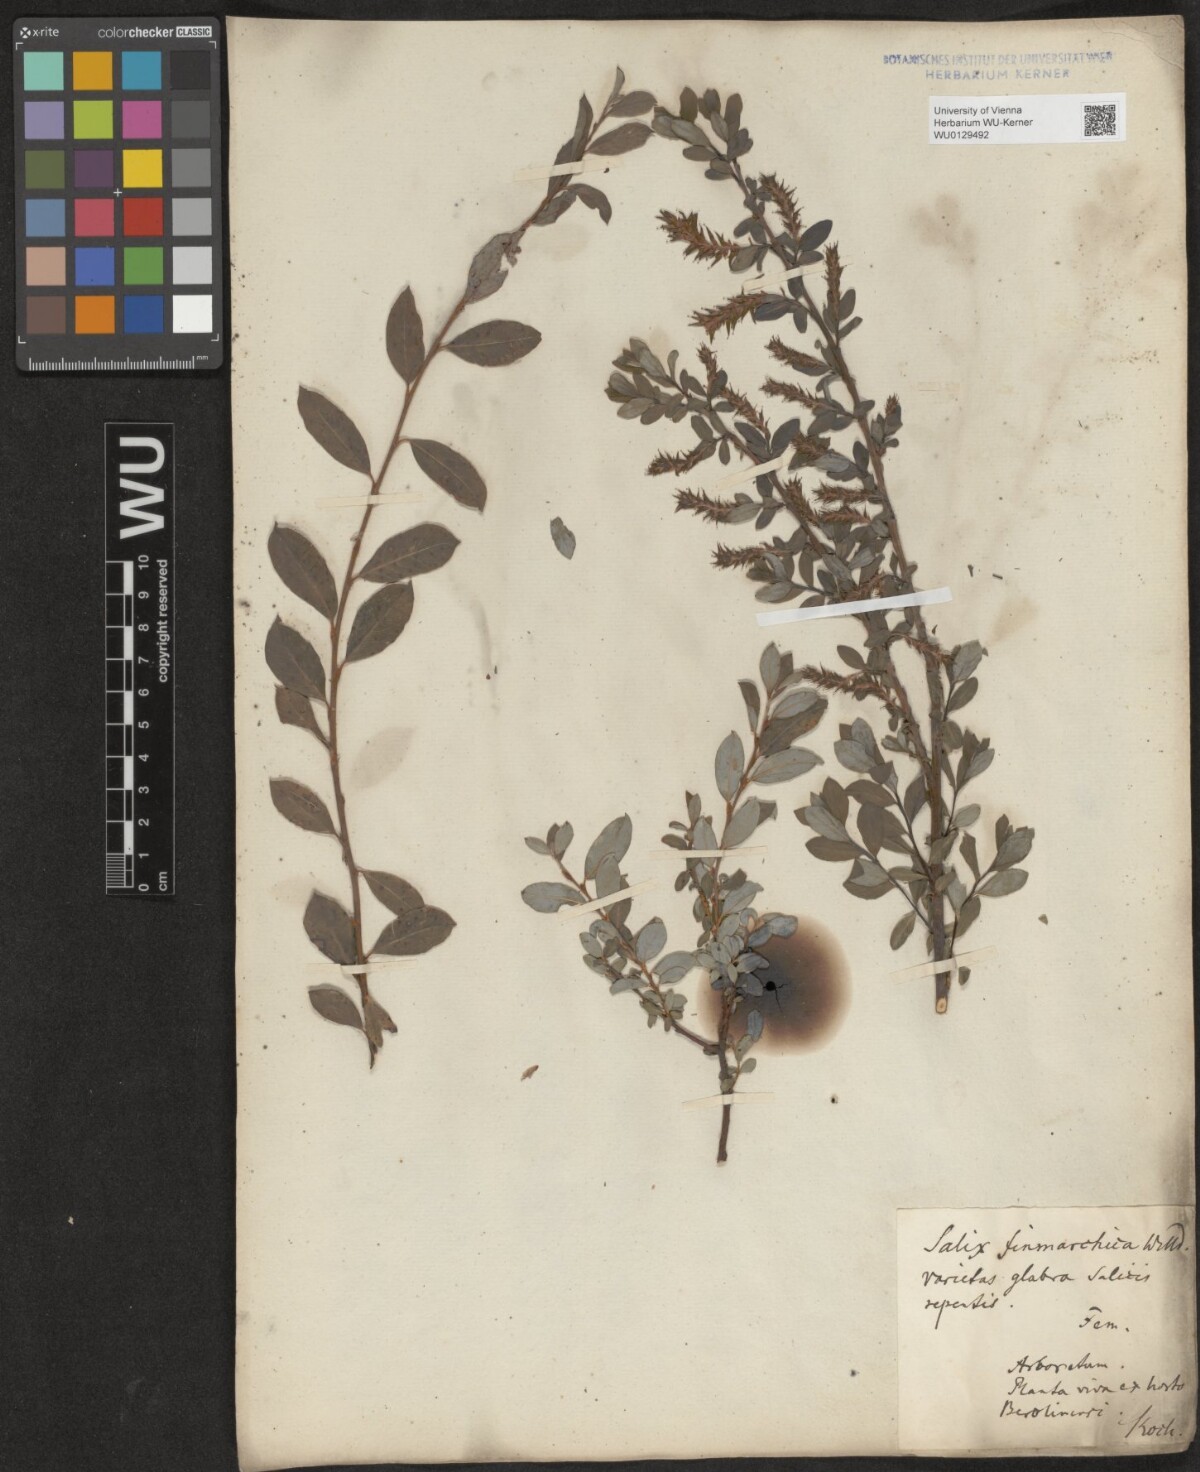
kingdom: Plantae
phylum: Tracheophyta
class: Magnoliopsida
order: Malpighiales
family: Salicaceae
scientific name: Salicaceae
